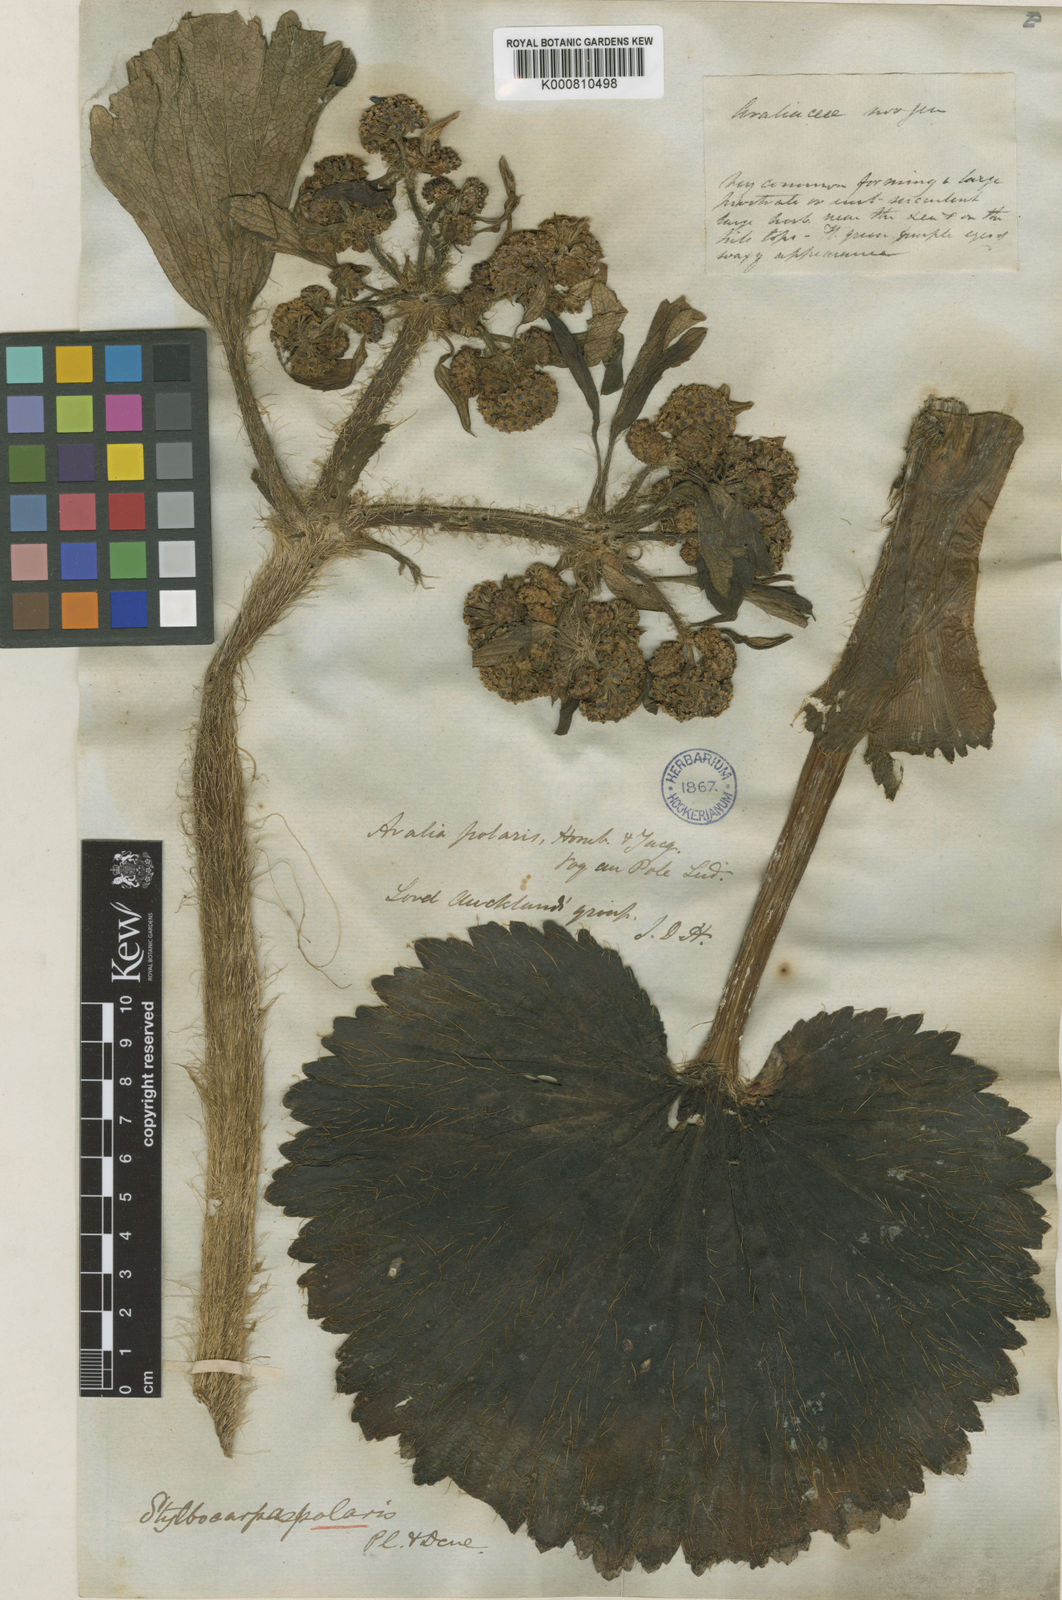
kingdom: Plantae
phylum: Tracheophyta
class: Magnoliopsida
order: Apiales
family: Apiaceae
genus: Azorella
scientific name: Azorella polaris
